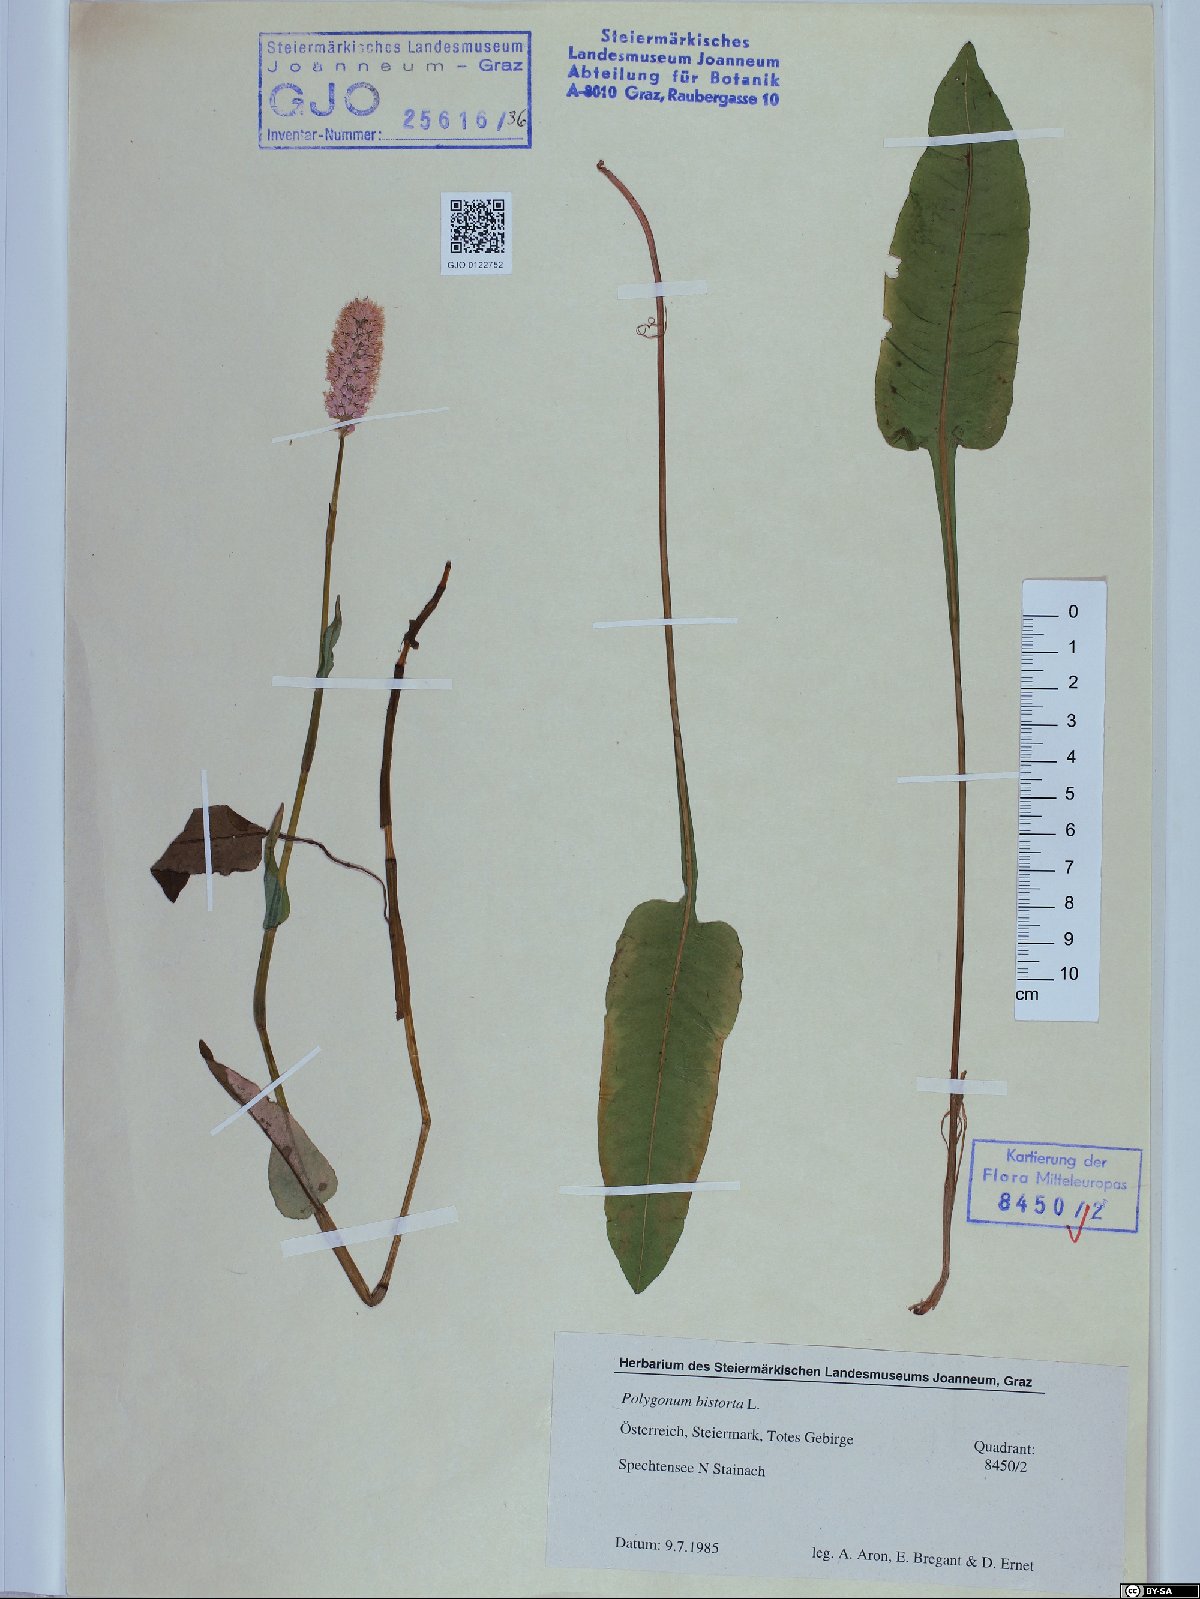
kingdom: Plantae
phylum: Tracheophyta
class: Magnoliopsida
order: Caryophyllales
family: Polygonaceae
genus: Bistorta
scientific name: Bistorta officinalis
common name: Common bistort
